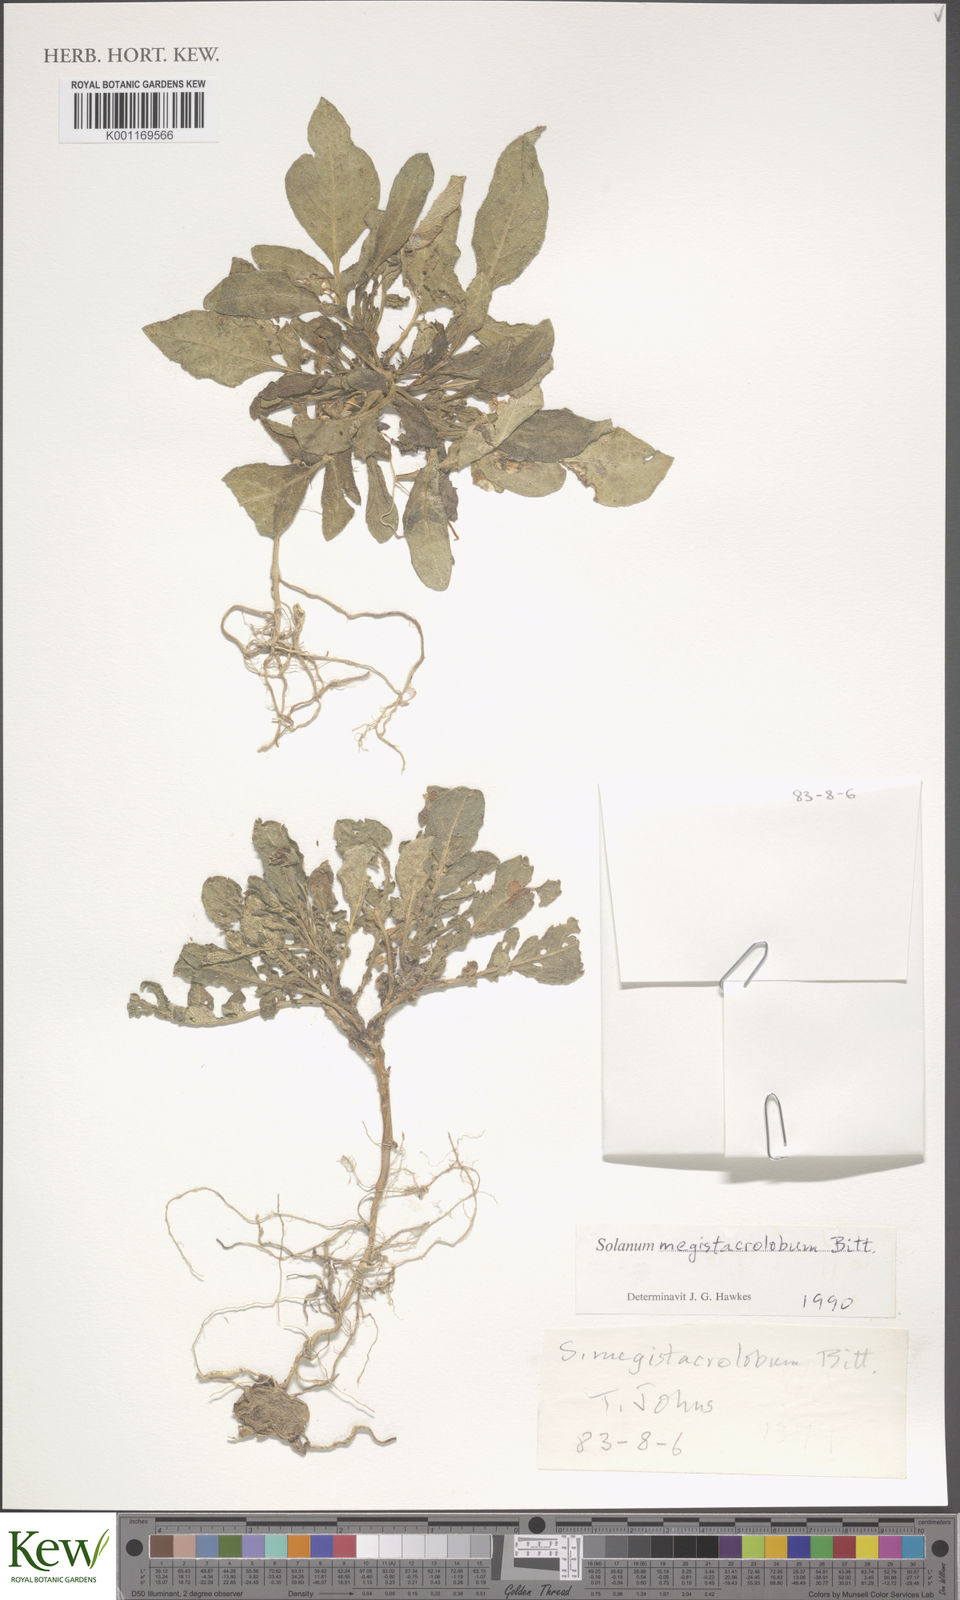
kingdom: Plantae
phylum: Tracheophyta
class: Magnoliopsida
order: Solanales
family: Solanaceae
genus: Solanum
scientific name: Solanum boliviense
